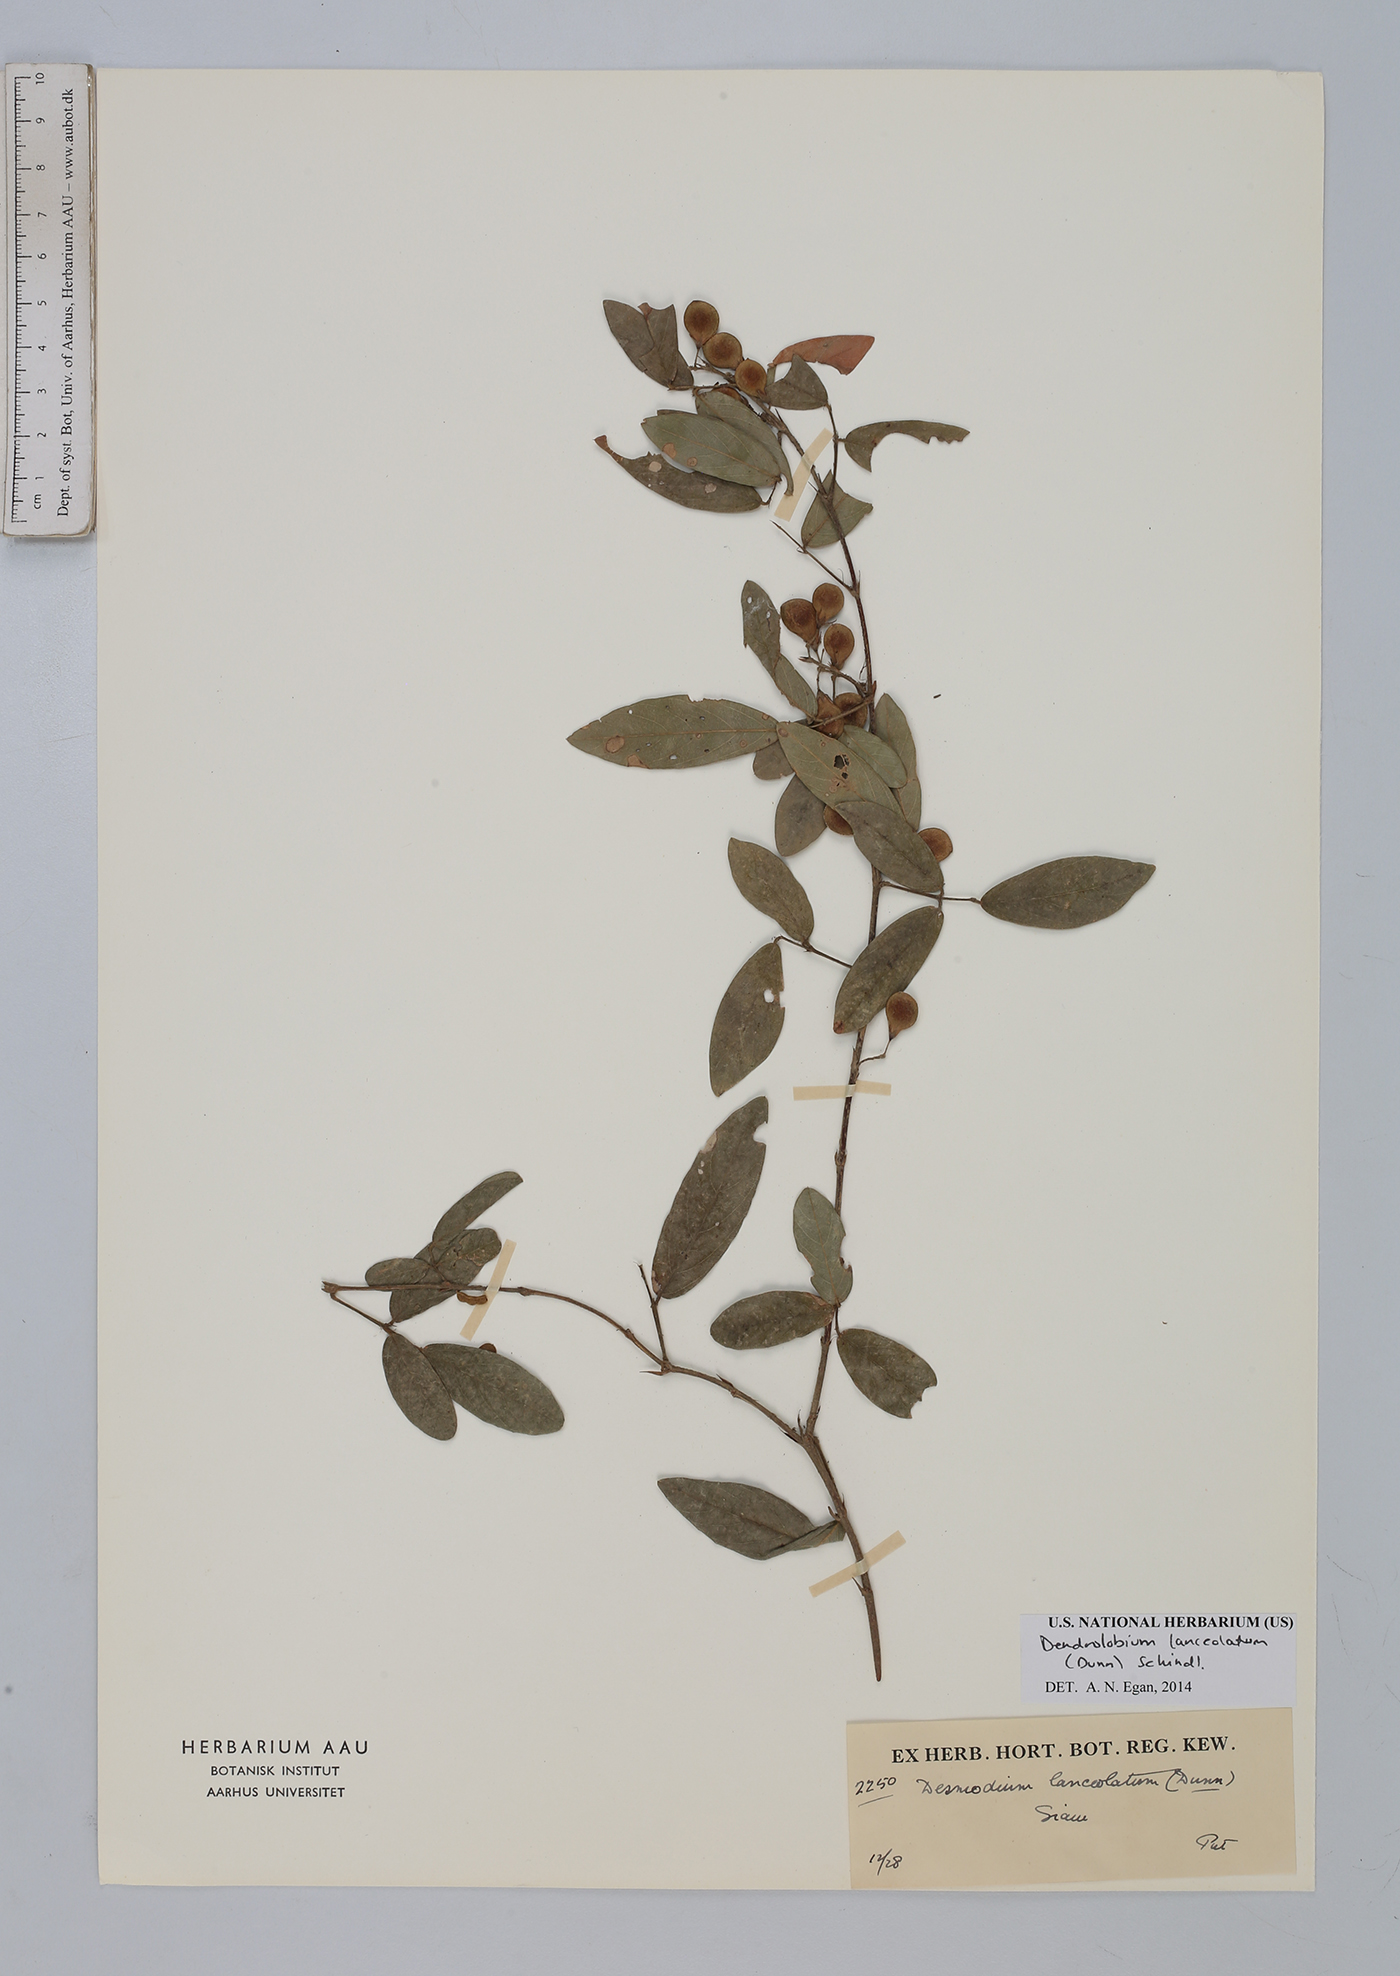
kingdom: Plantae
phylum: Tracheophyta
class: Magnoliopsida
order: Fabales
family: Fabaceae
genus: Dendrolobium
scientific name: Dendrolobium lanceolatum
